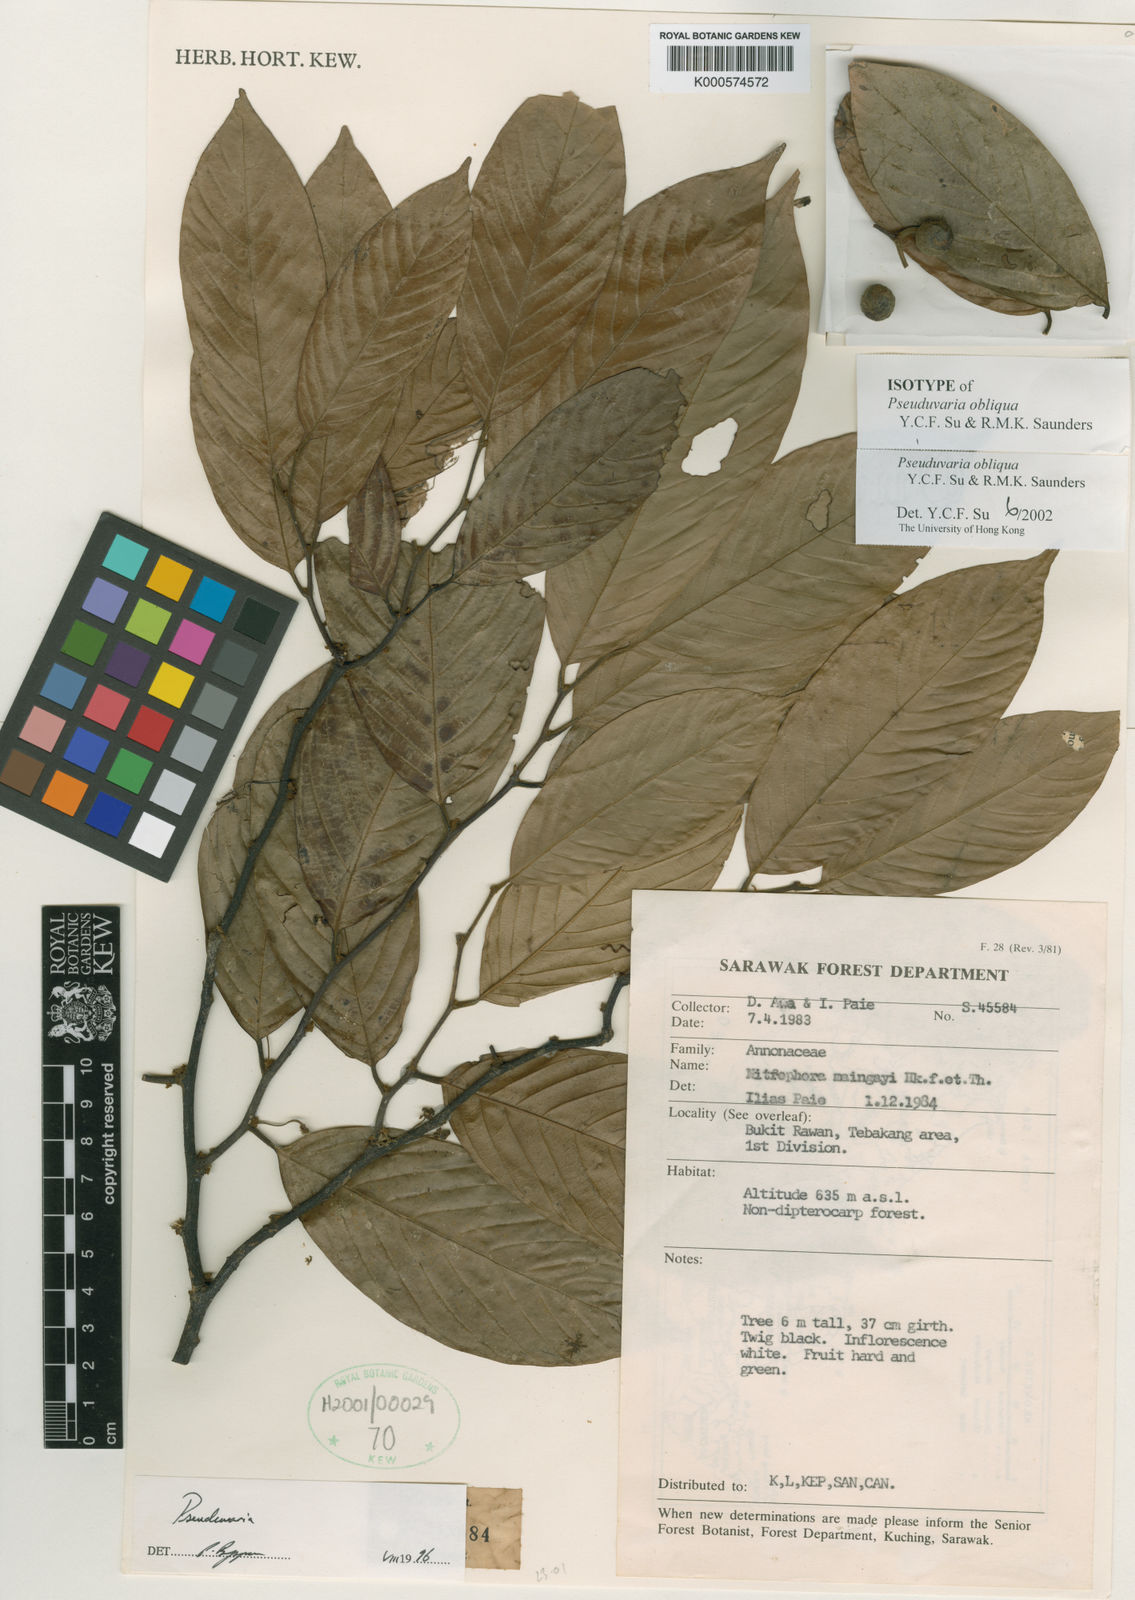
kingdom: Plantae
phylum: Tracheophyta
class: Magnoliopsida
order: Magnoliales
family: Annonaceae
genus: Pseuduvaria
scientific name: Pseuduvaria obliqua
